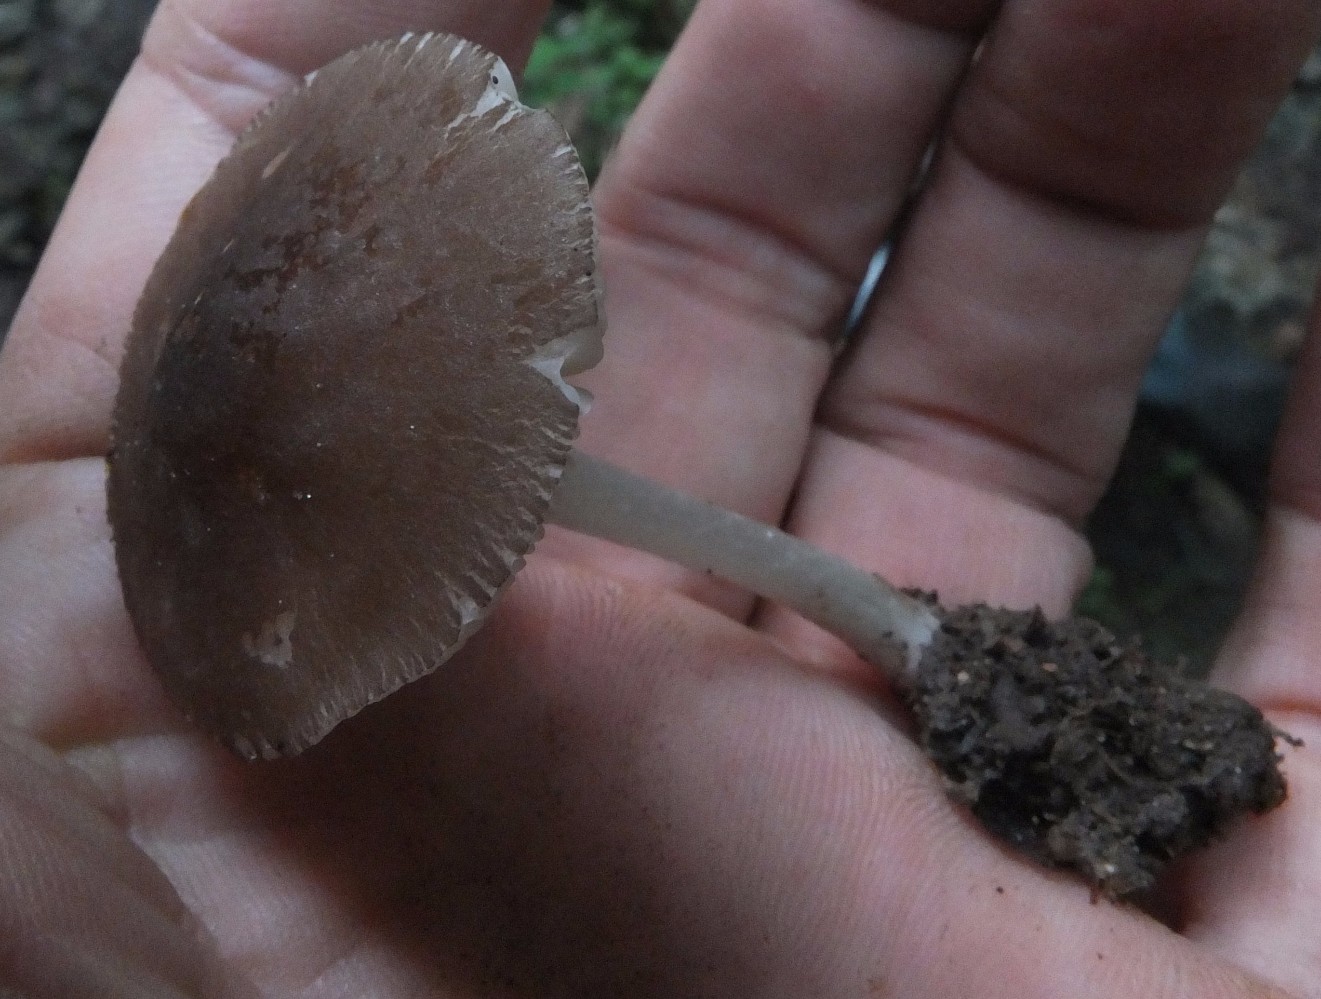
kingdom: Fungi
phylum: Basidiomycota
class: Agaricomycetes
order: Agaricales
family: Pluteaceae
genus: Pluteus
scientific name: Pluteus
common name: pudret skærmhat
